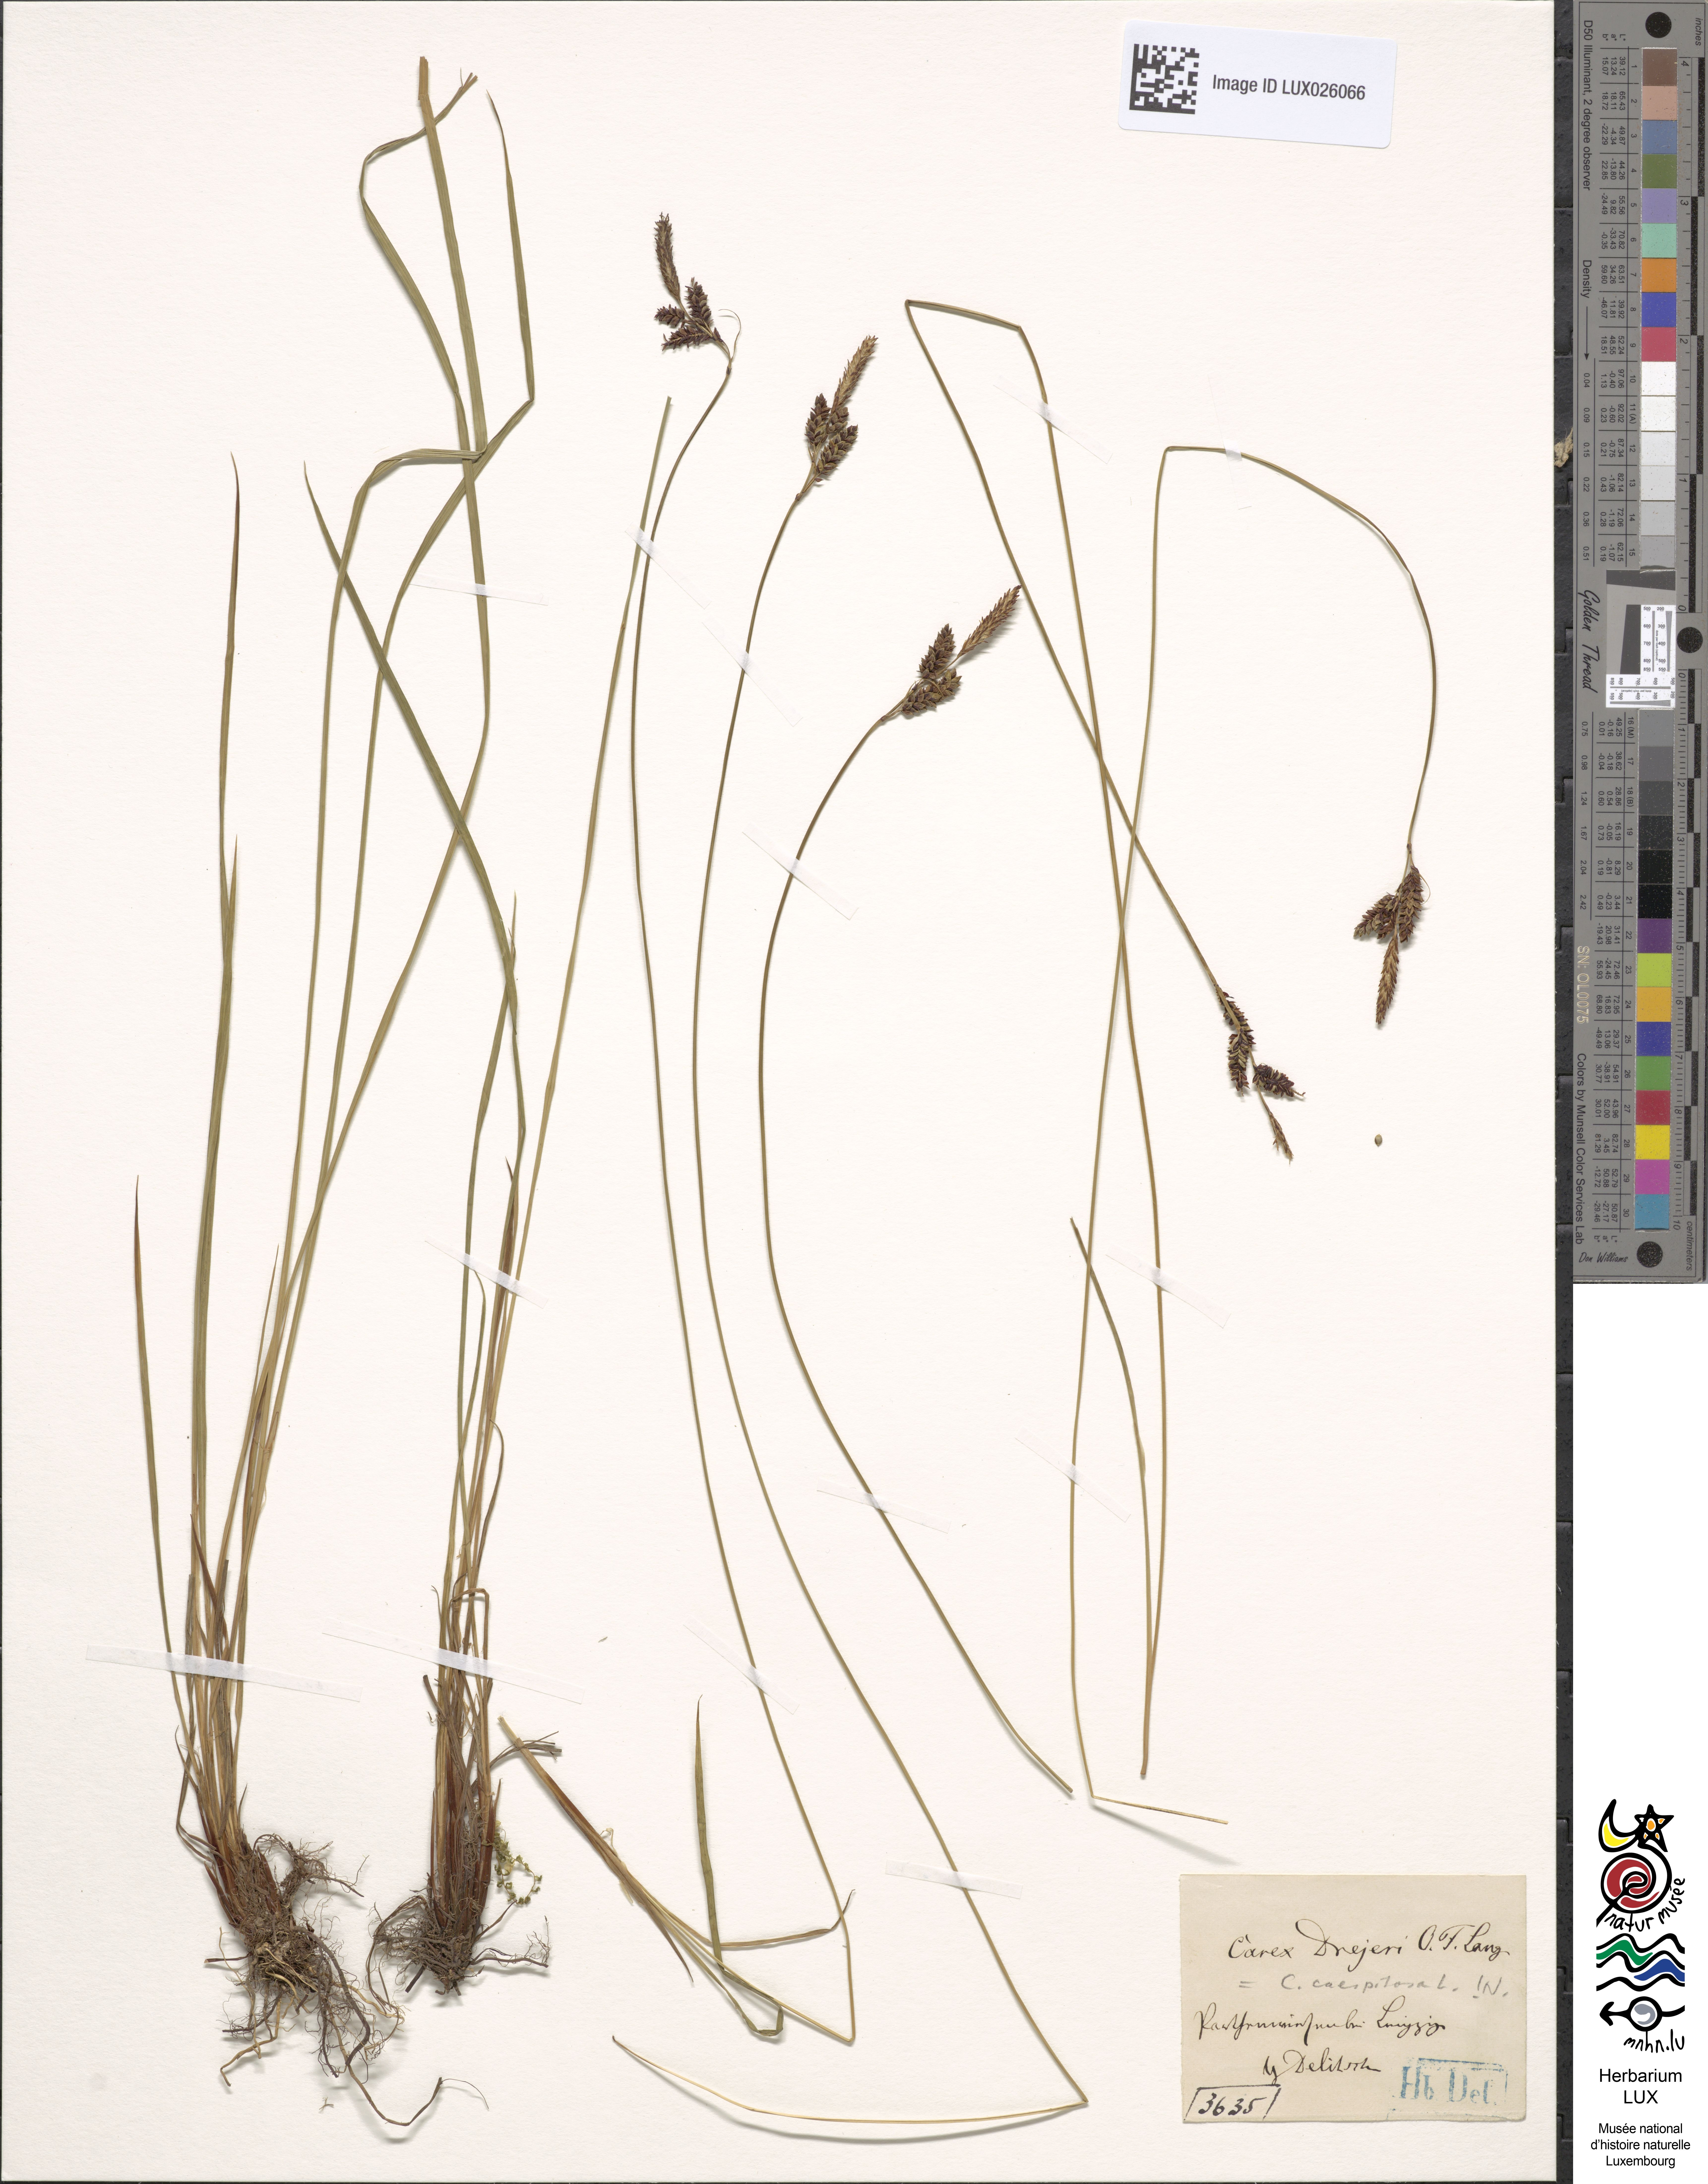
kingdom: Plantae
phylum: Tracheophyta
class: Liliopsida
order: Poales
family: Cyperaceae
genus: Carex
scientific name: Carex cespitosa
